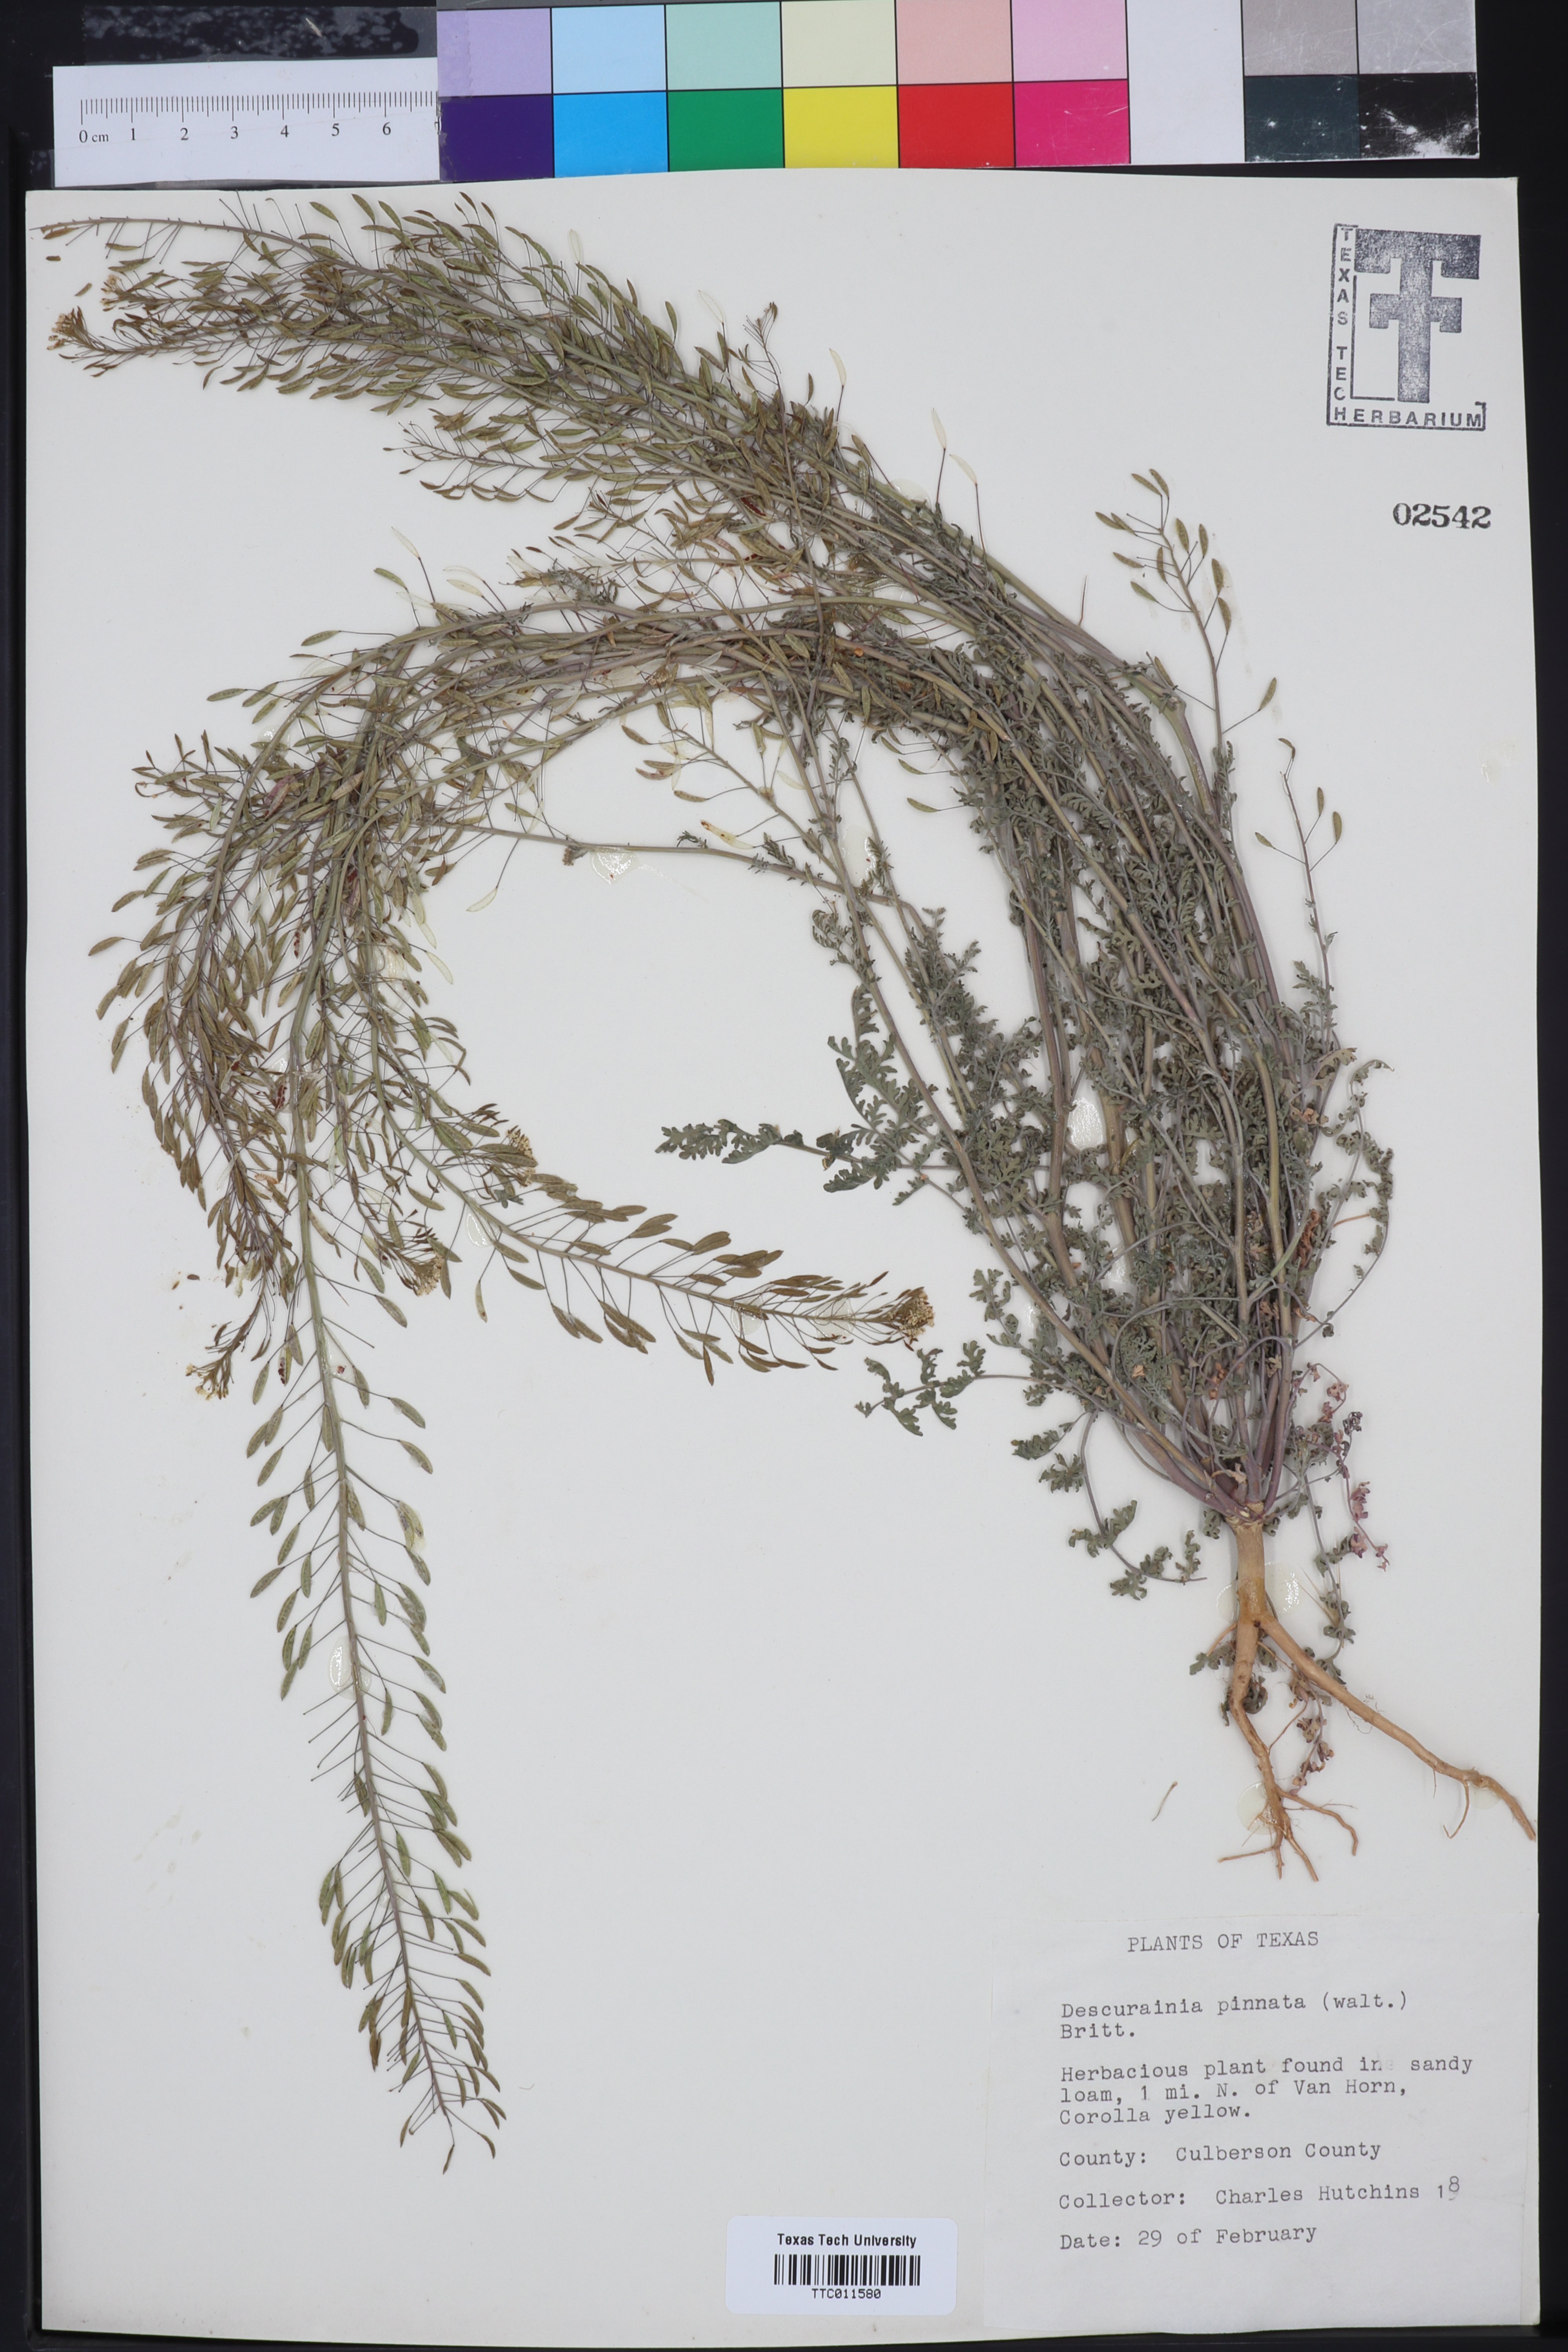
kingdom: Plantae
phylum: Tracheophyta
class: Magnoliopsida
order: Brassicales
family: Brassicaceae
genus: Descurainia
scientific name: Descurainia pinnata
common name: Western tansy mustard
